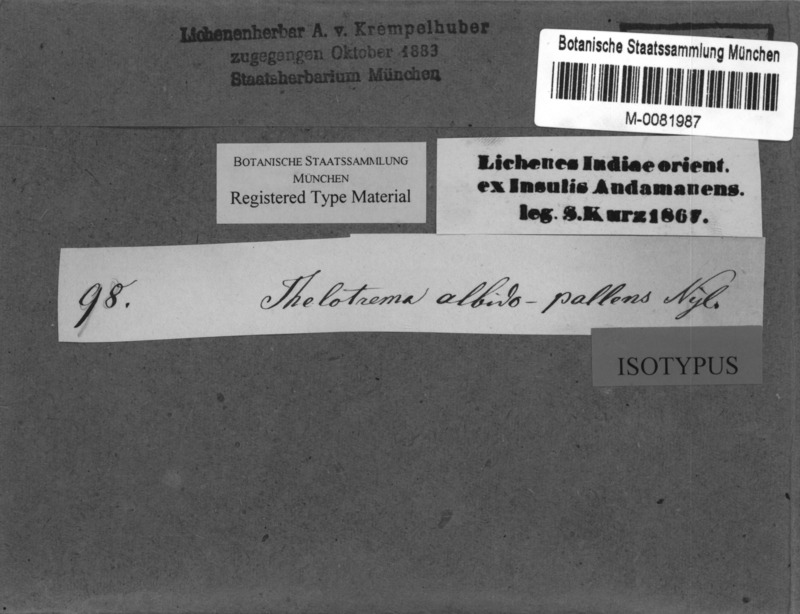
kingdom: Fungi
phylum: Ascomycota
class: Lecanoromycetes
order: Ostropales
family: Graphidaceae
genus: Thelotrema
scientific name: Thelotrema albidopallens
